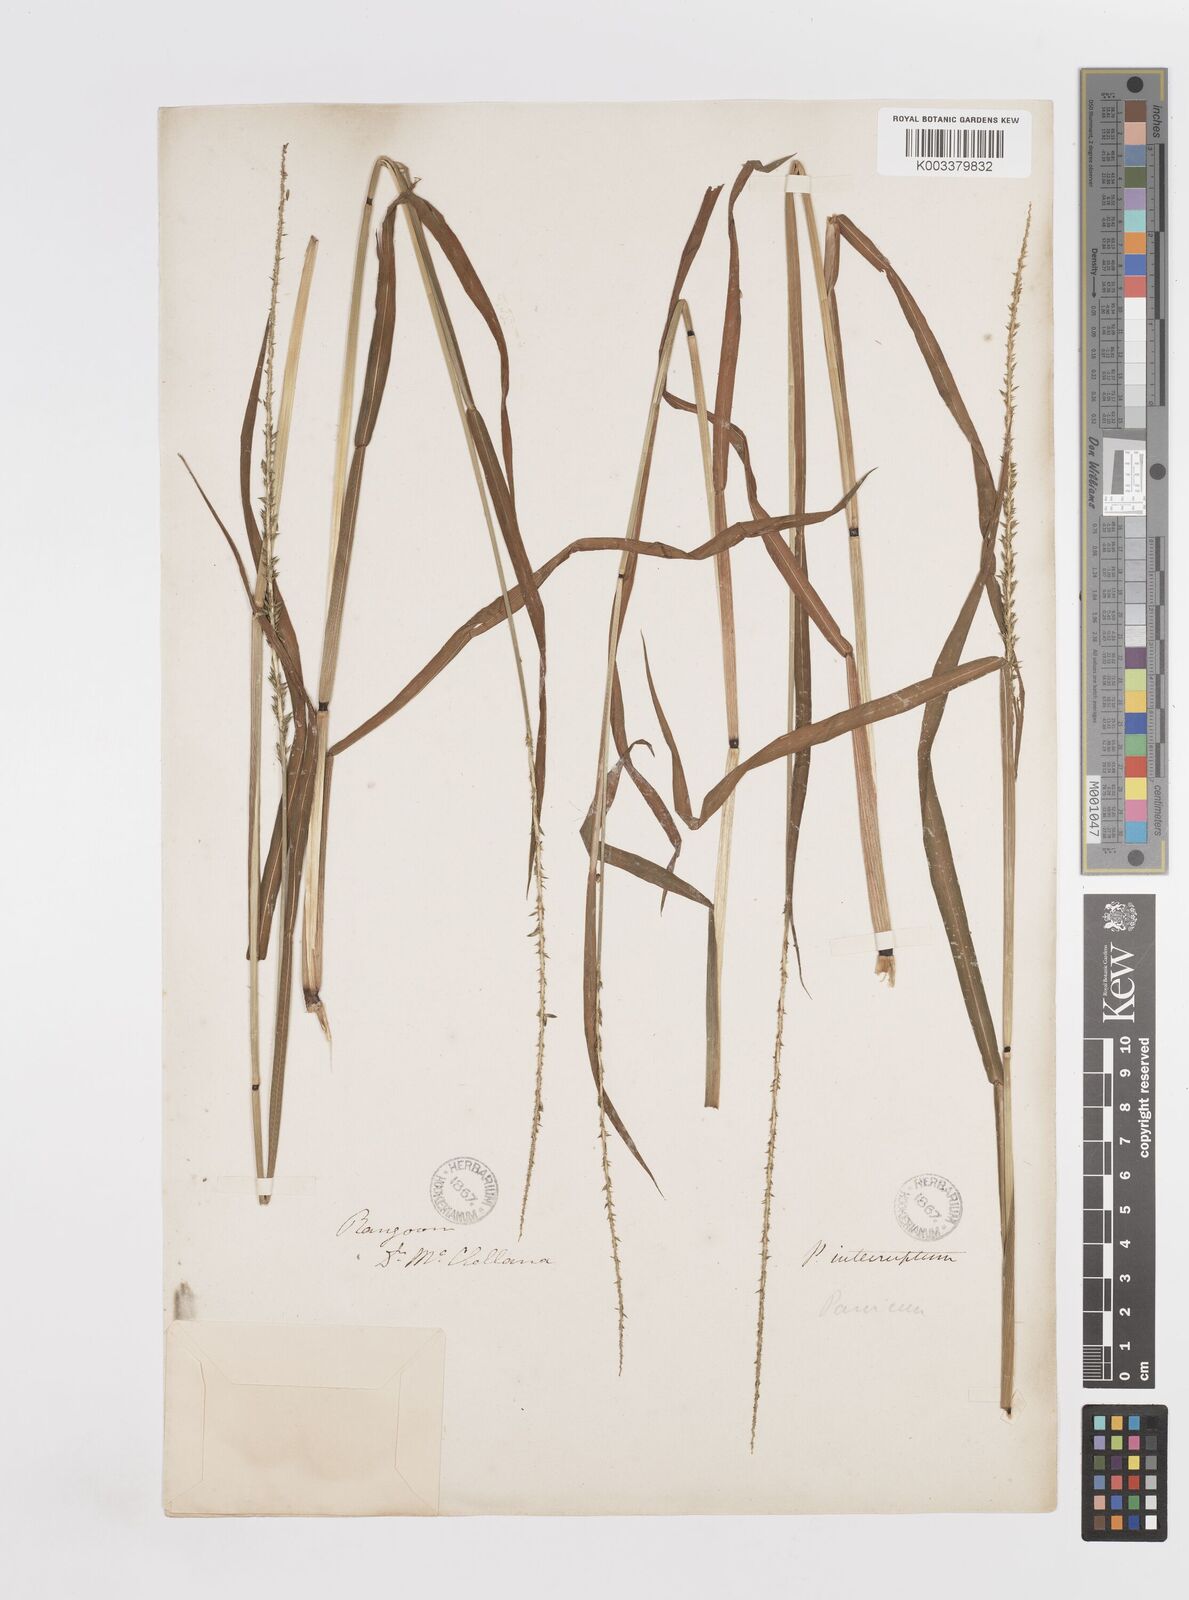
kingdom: Plantae
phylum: Tracheophyta
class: Liliopsida
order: Poales
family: Poaceae
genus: Sacciolepis
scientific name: Sacciolepis interrupta
